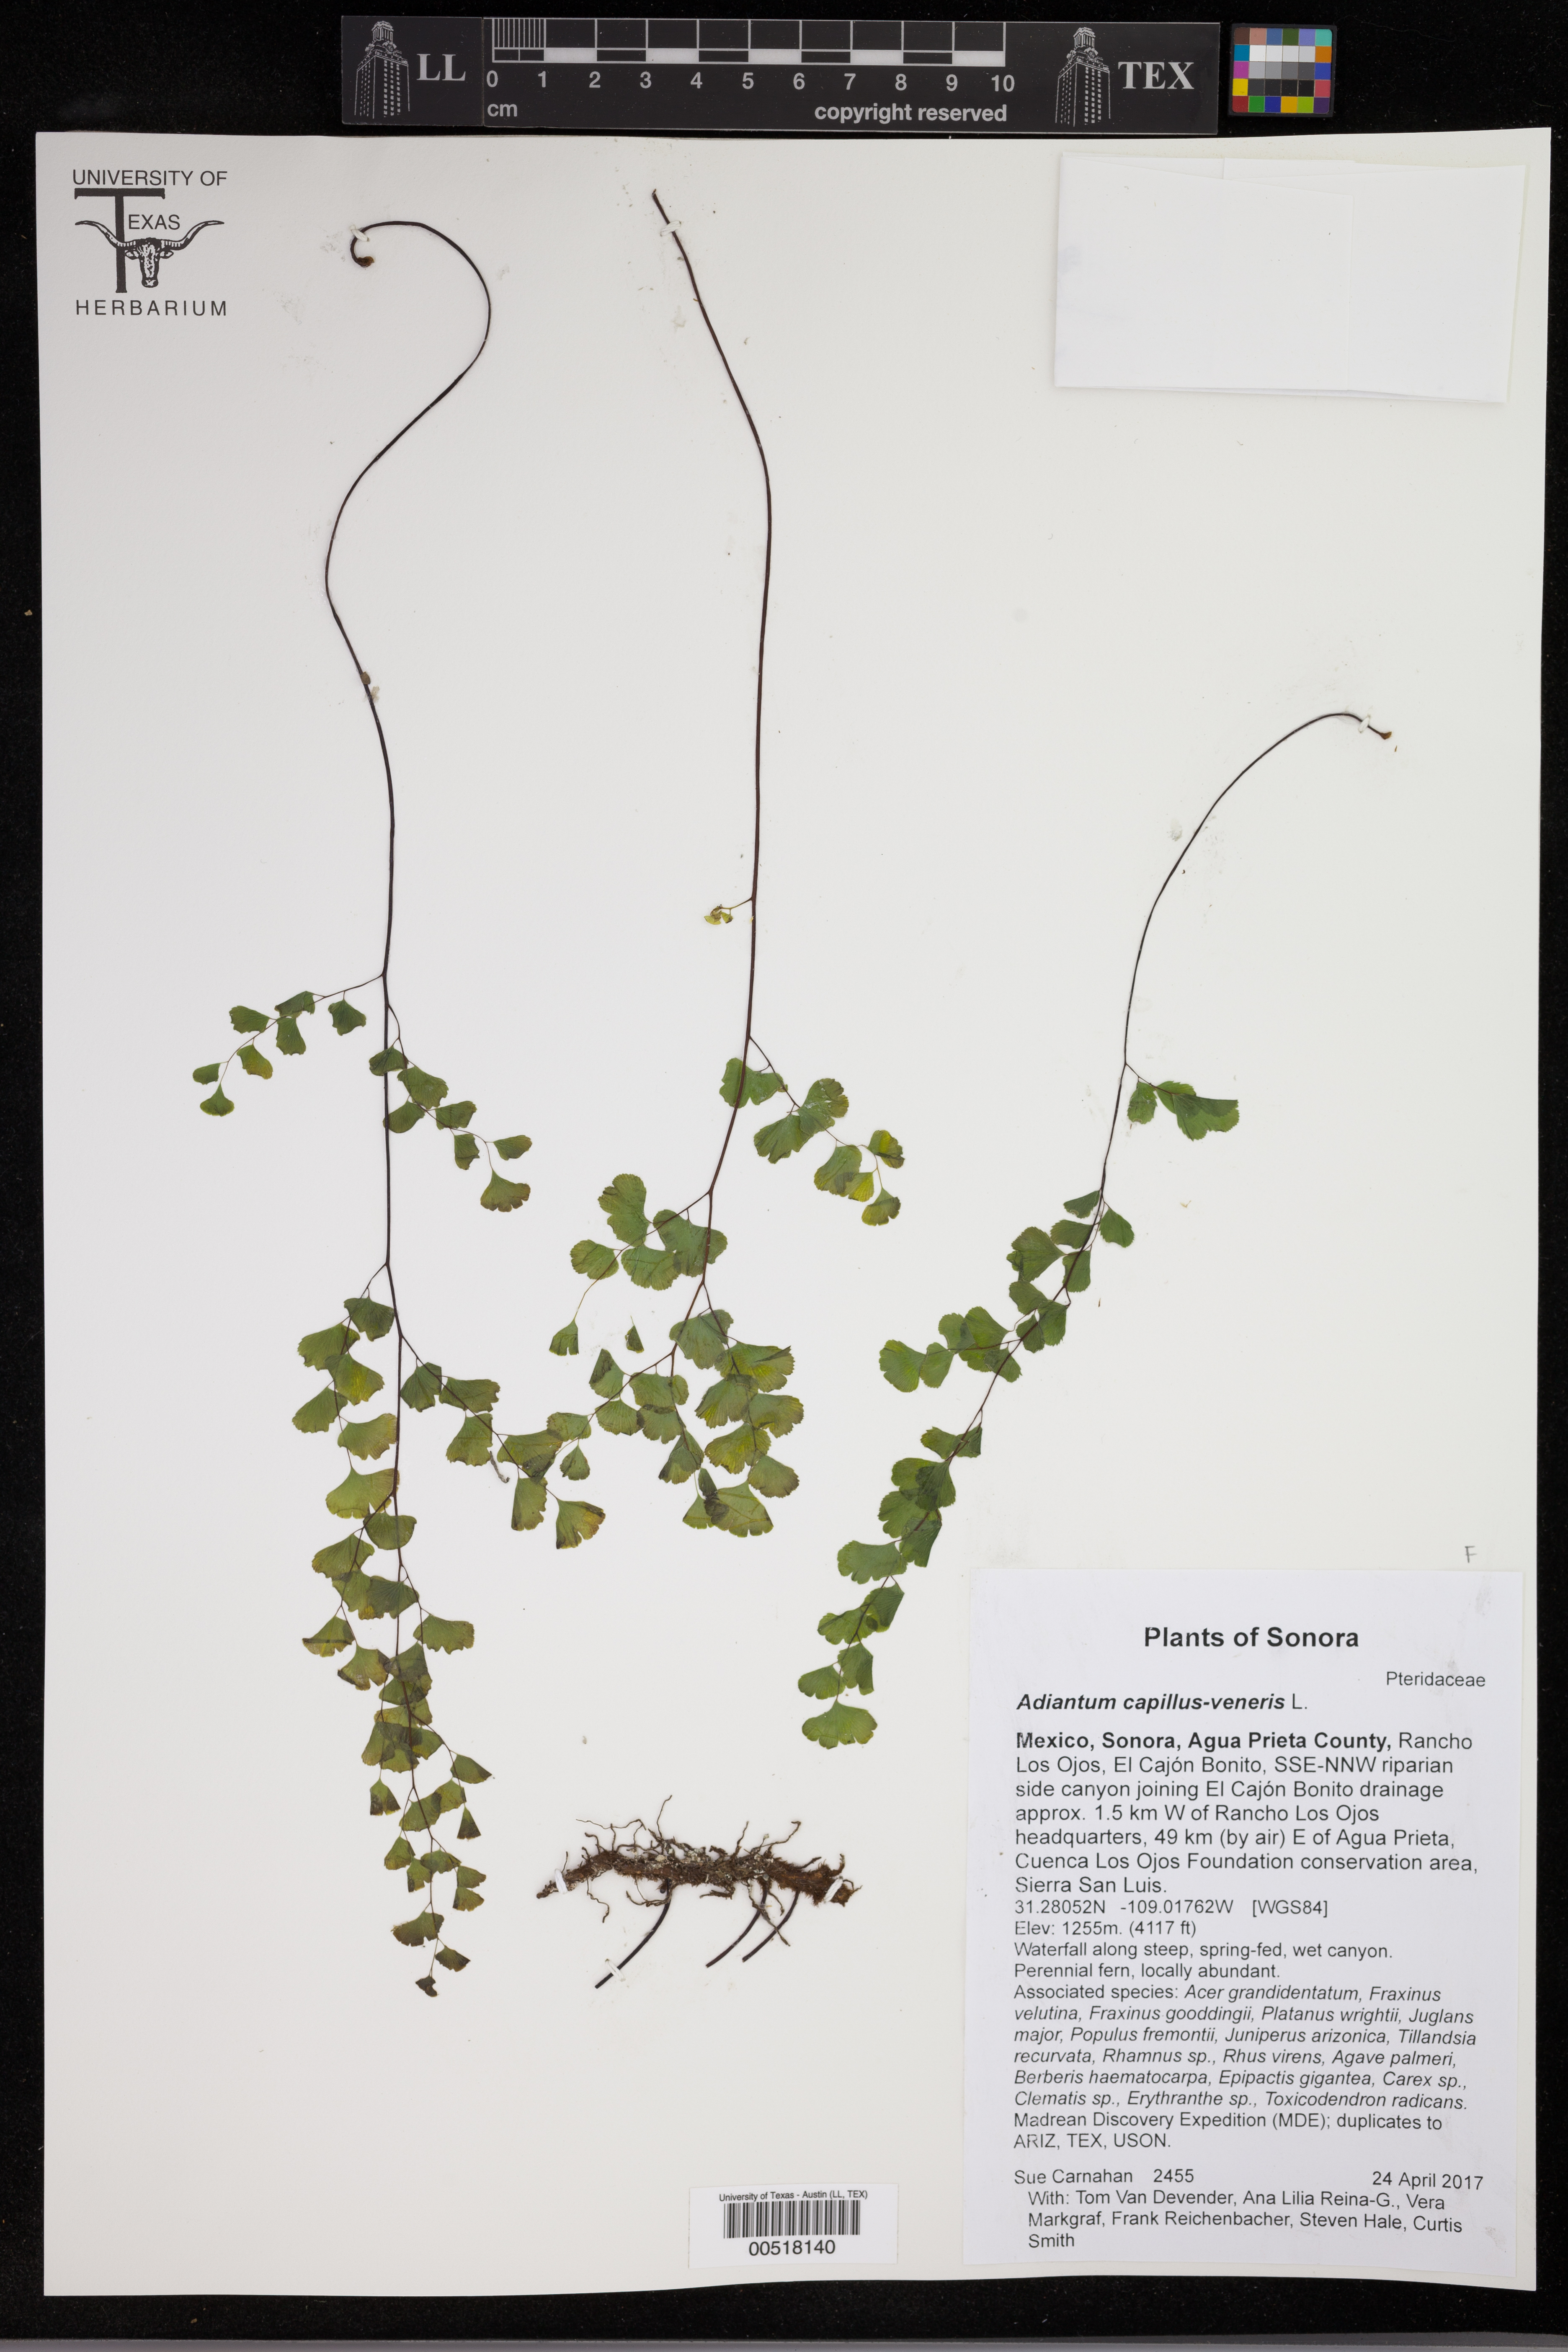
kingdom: Plantae
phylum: Tracheophyta
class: Polypodiopsida
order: Polypodiales
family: Pteridaceae
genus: Adiantum
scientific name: Adiantum capillus-veneris
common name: Maidenhair fern
